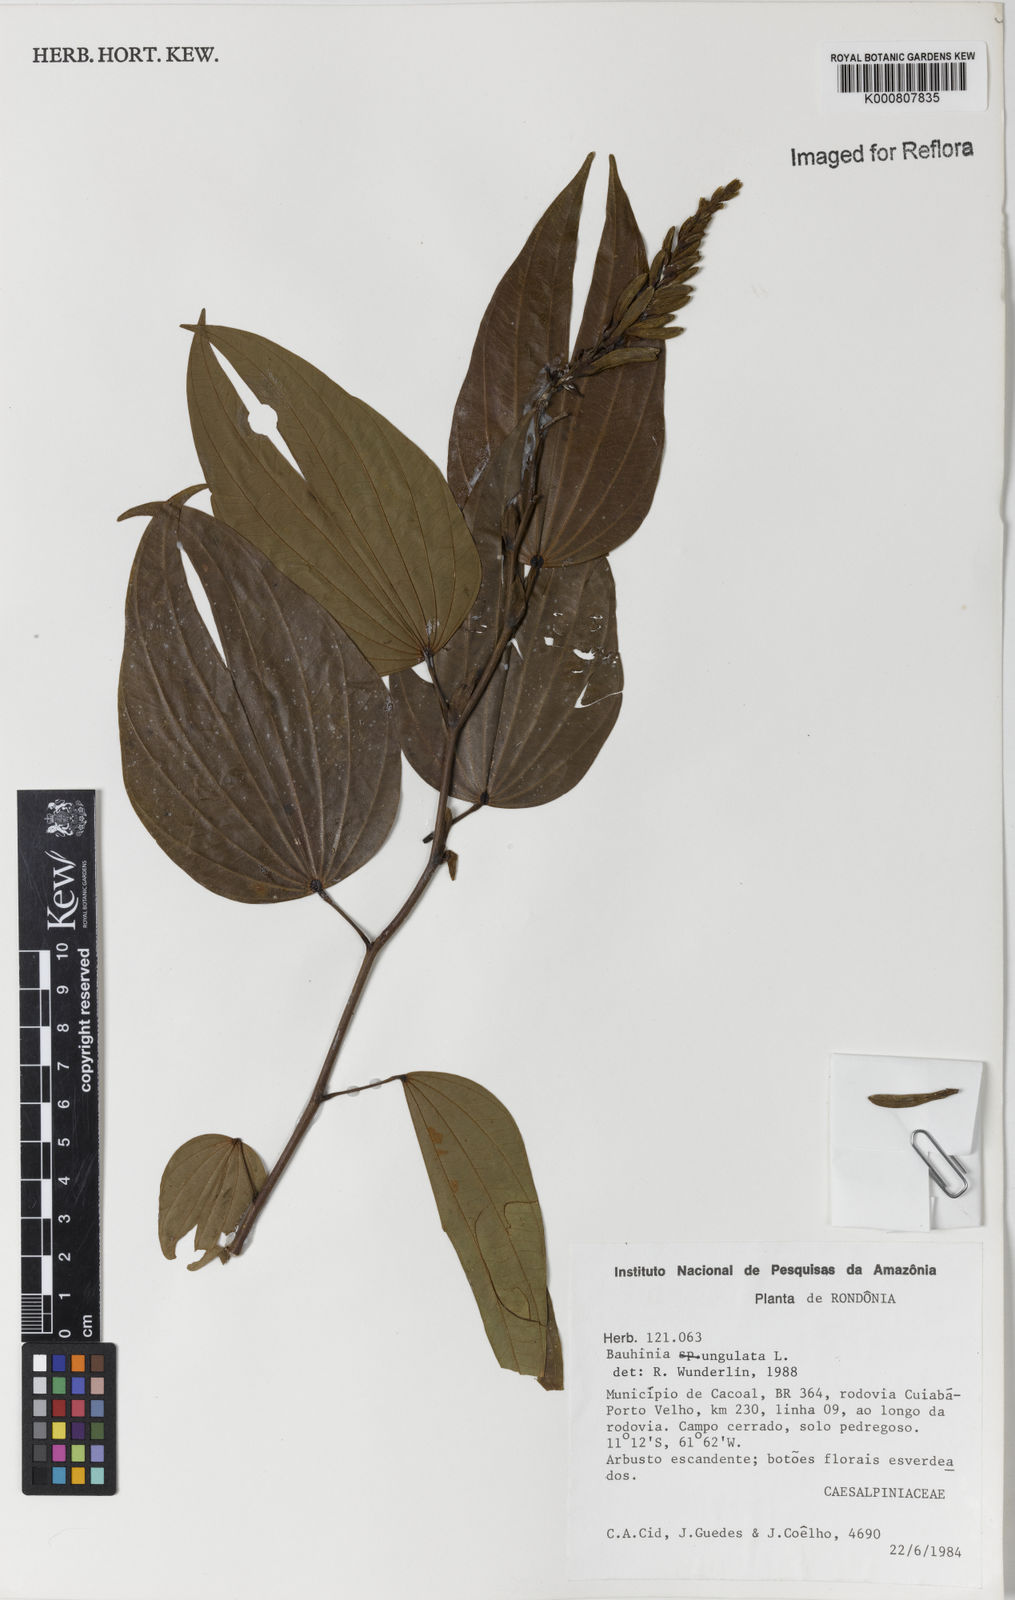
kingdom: Plantae
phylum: Tracheophyta
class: Magnoliopsida
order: Fabales
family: Fabaceae
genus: Bauhinia
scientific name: Bauhinia ungulata
